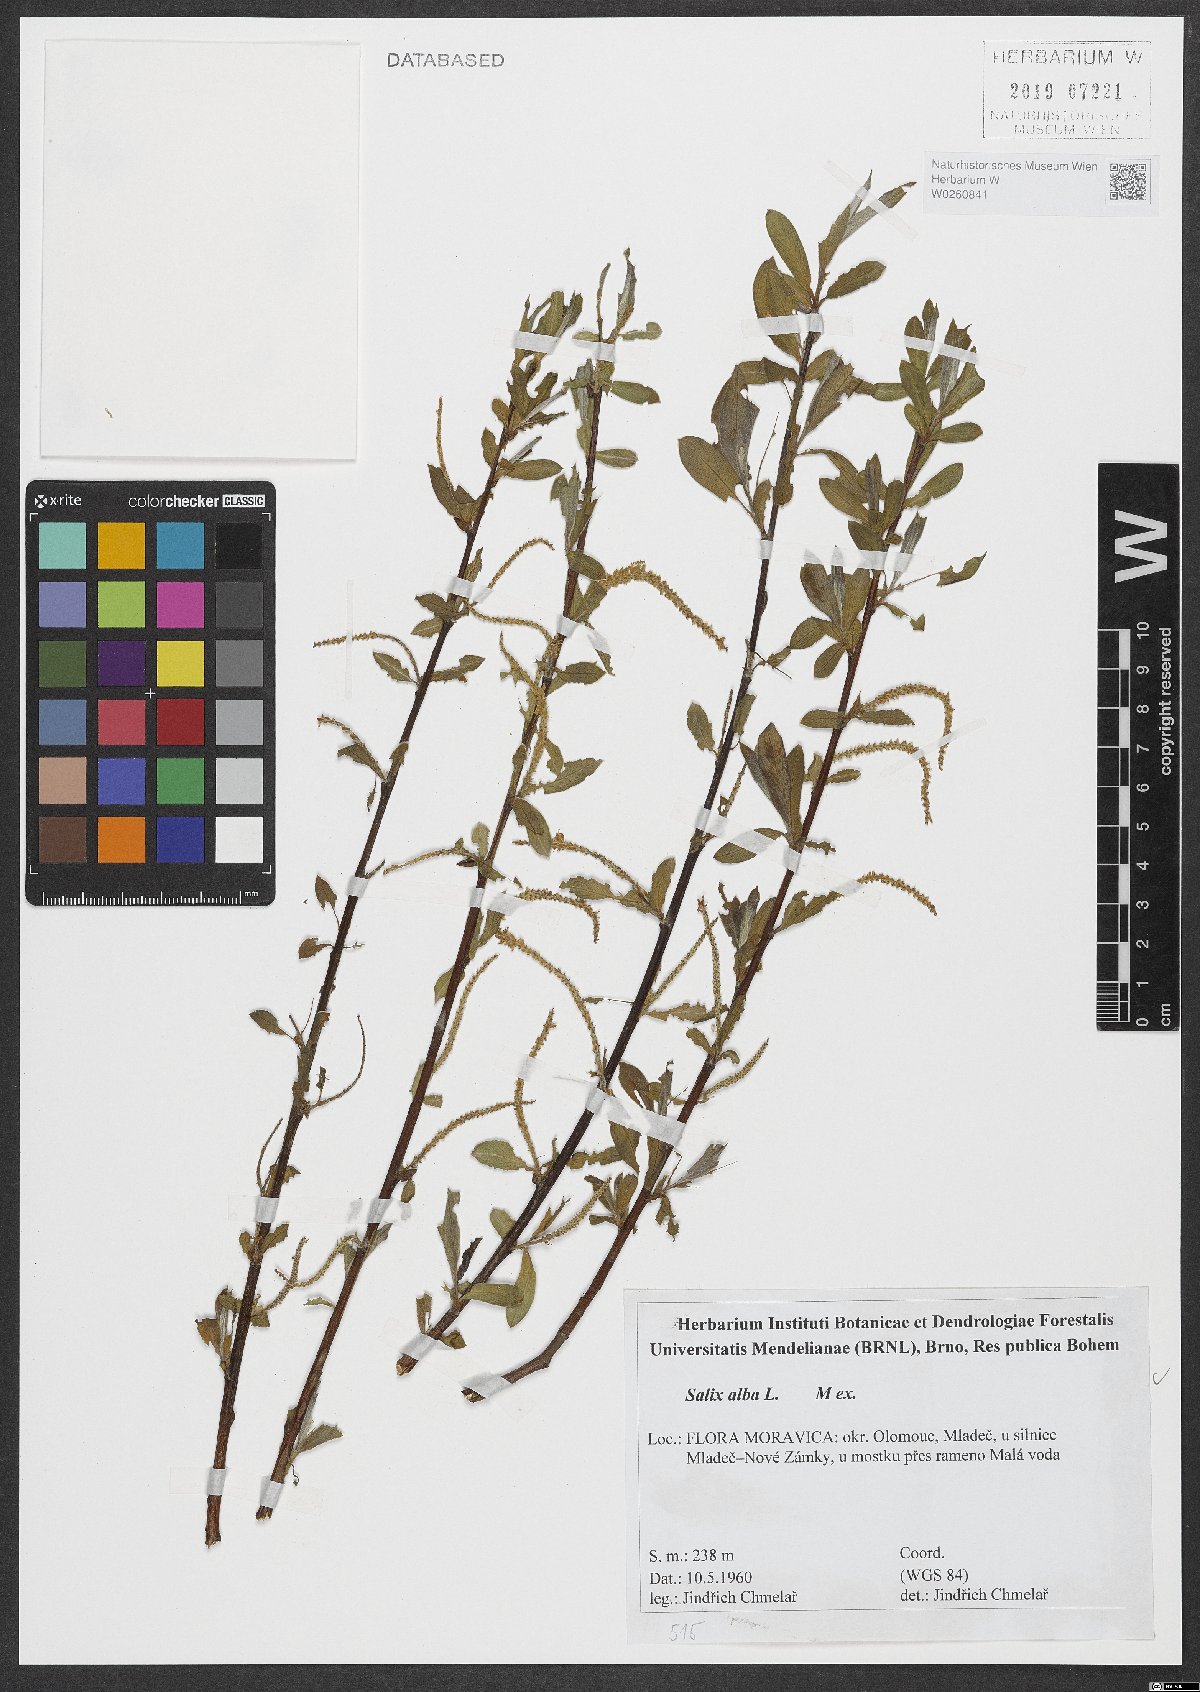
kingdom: Plantae
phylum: Tracheophyta
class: Magnoliopsida
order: Malpighiales
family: Salicaceae
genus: Salix
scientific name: Salix alba
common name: White willow
